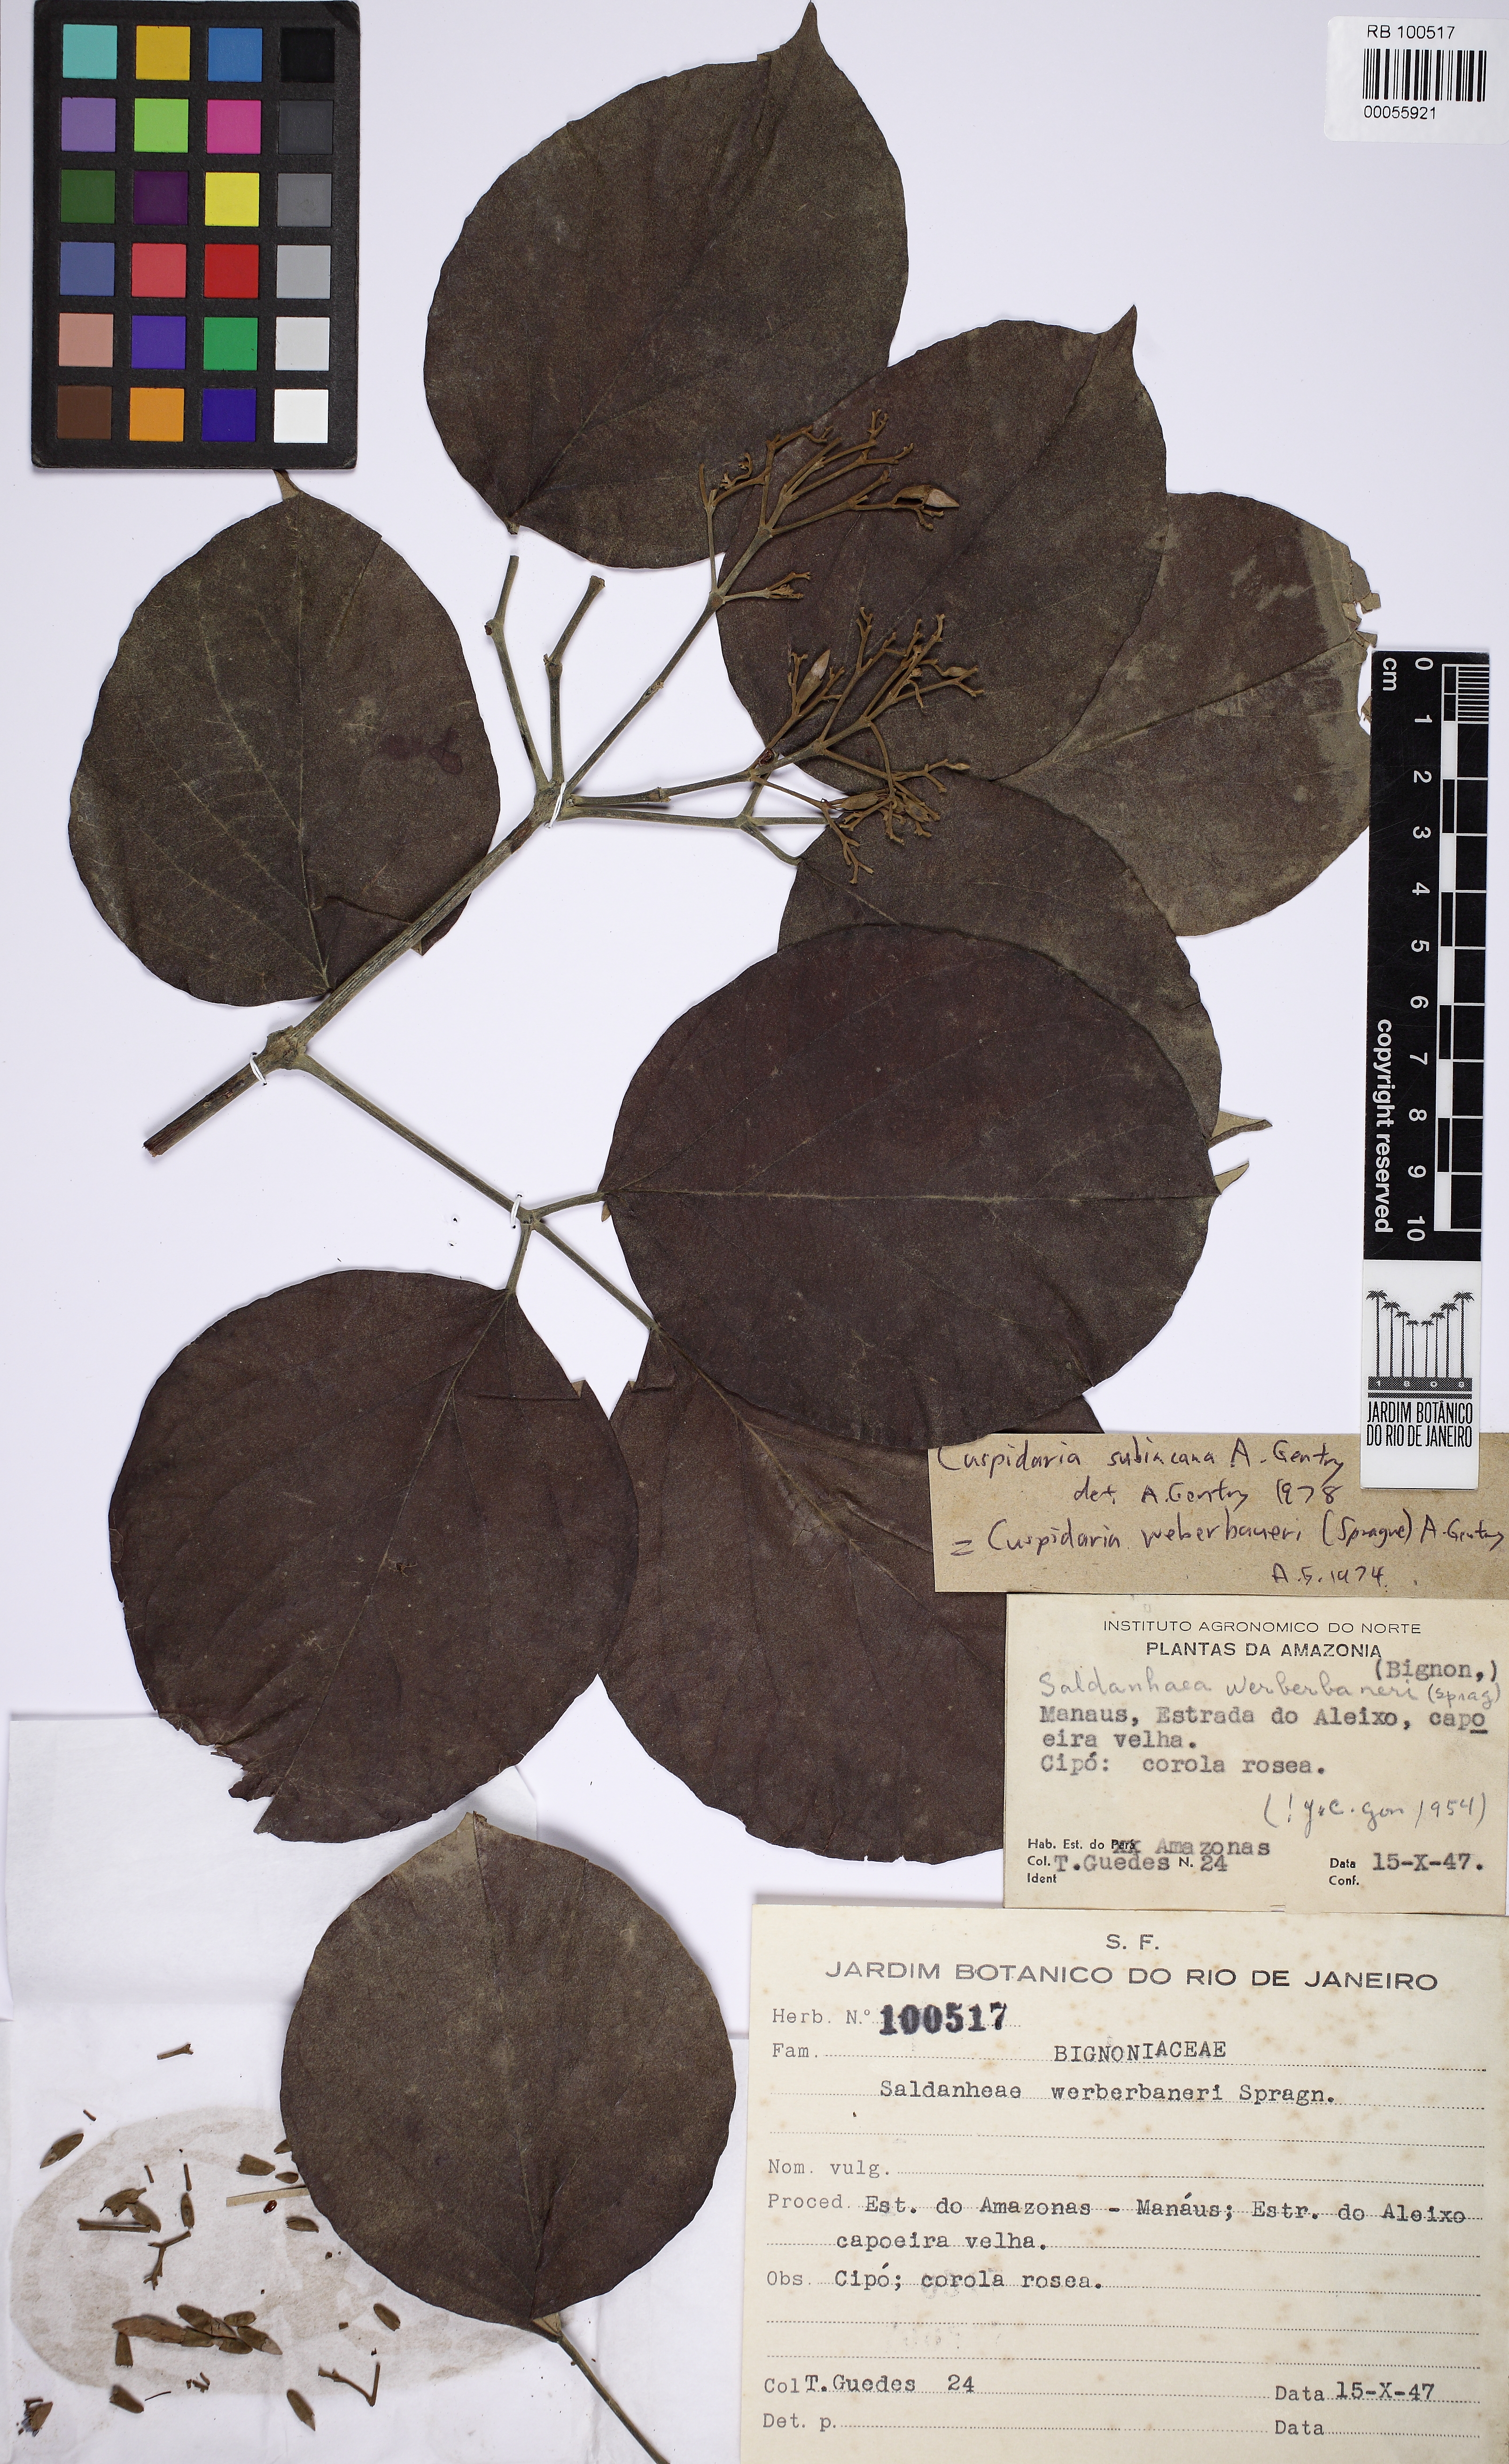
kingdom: Plantae
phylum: Tracheophyta
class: Magnoliopsida
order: Lamiales
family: Bignoniaceae
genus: Cuspidaria
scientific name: Cuspidaria subincana
